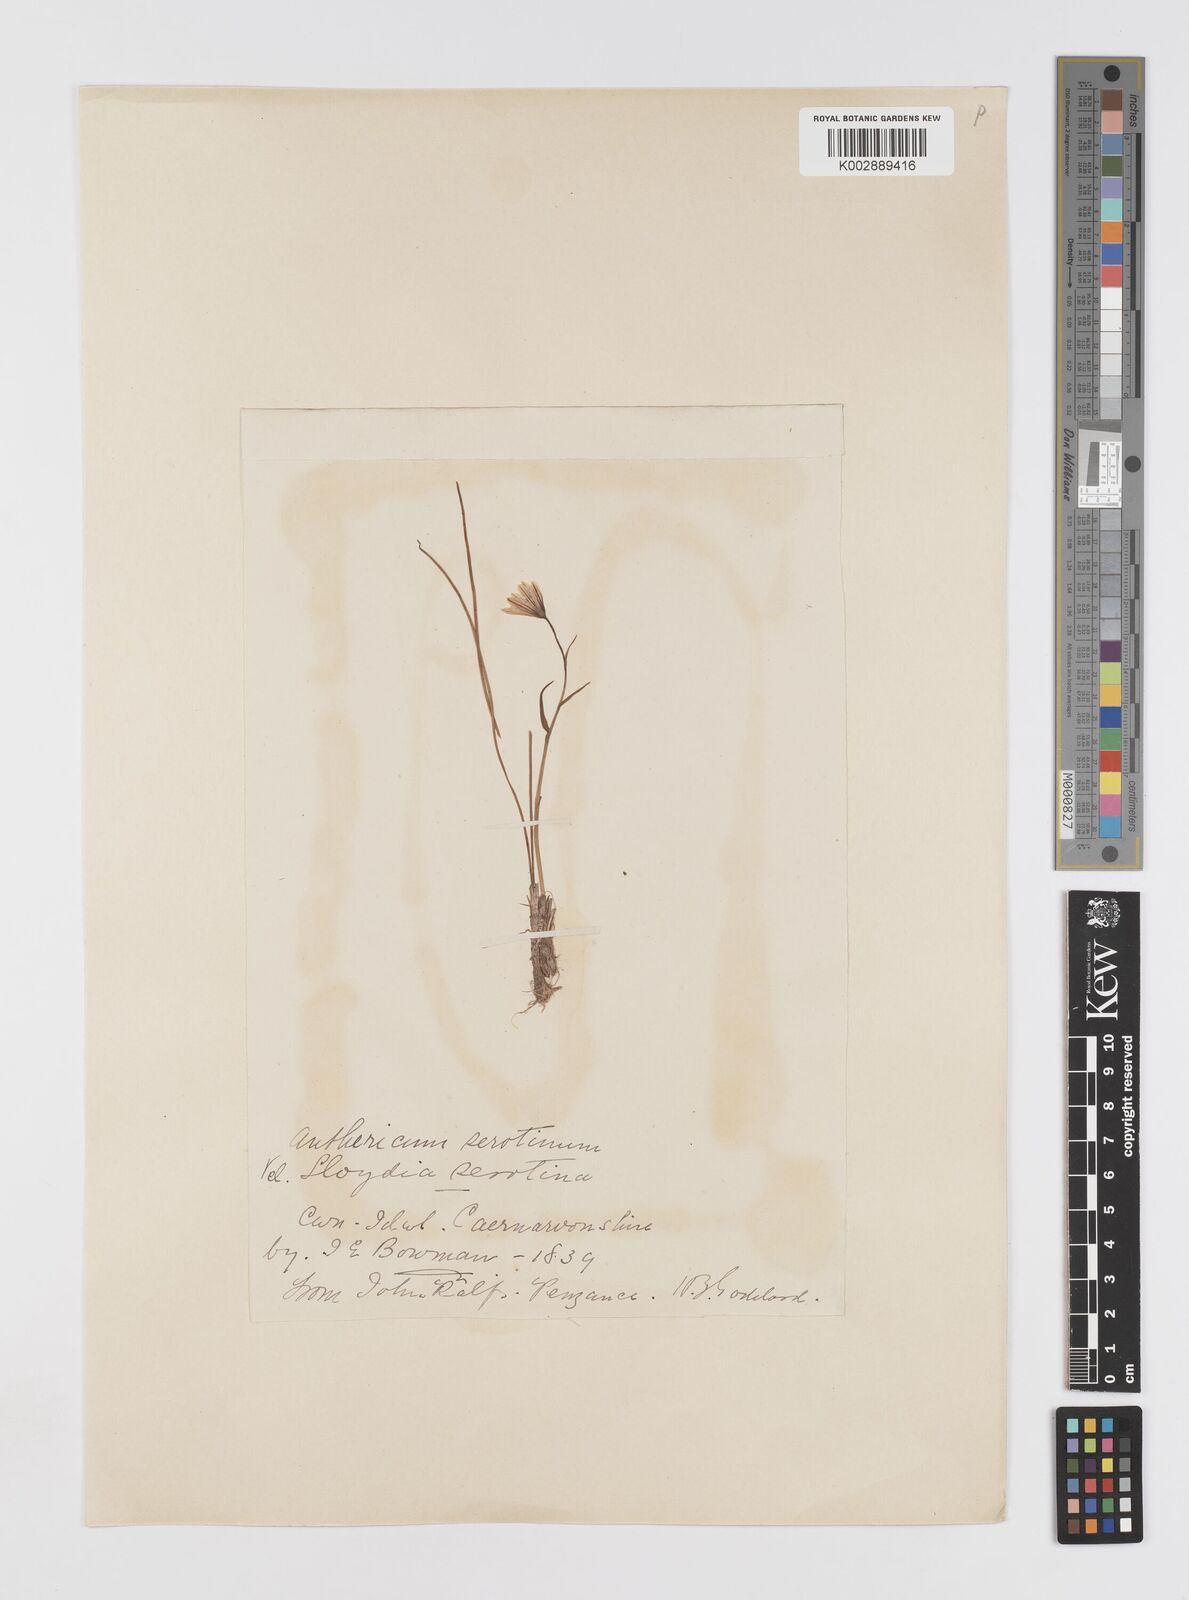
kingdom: Plantae
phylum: Tracheophyta
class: Liliopsida
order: Liliales
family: Liliaceae
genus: Gagea
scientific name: Gagea
